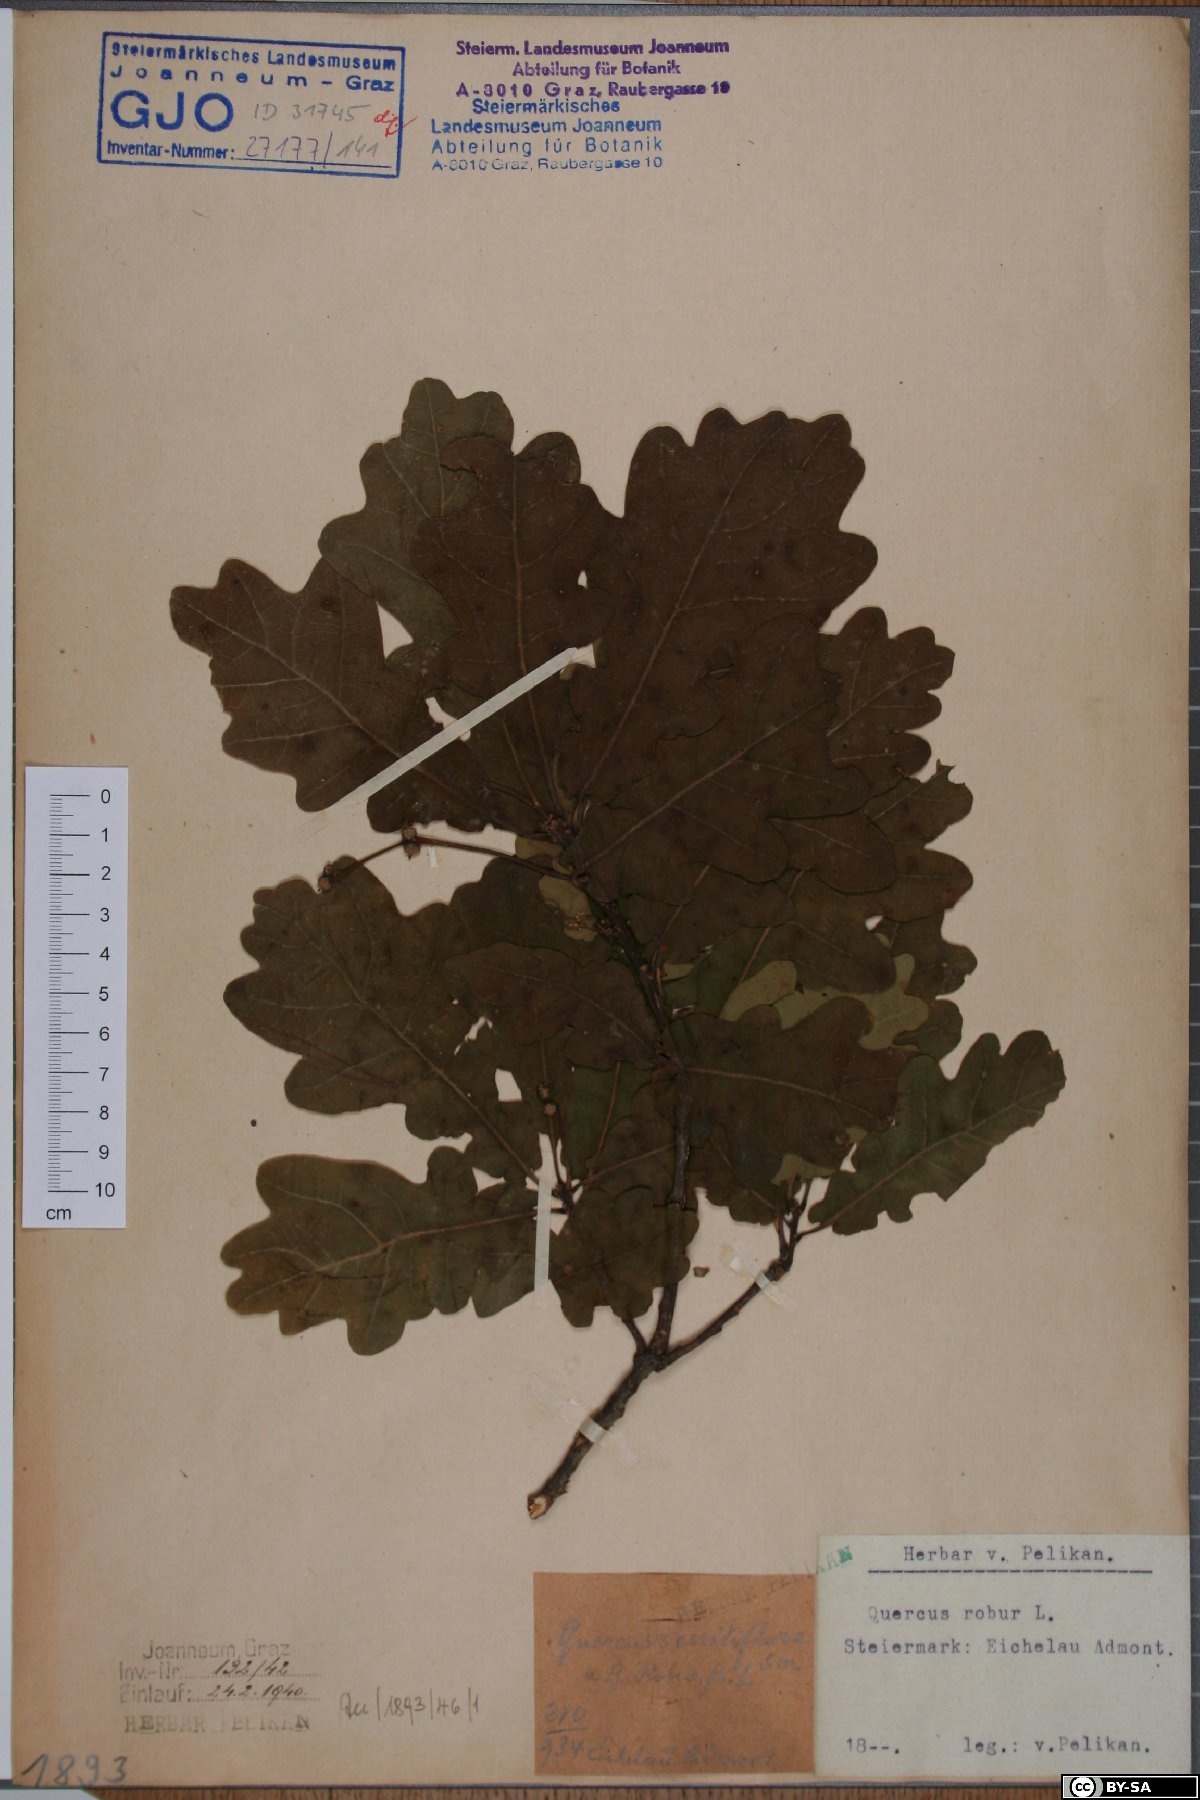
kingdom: Plantae
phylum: Tracheophyta
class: Magnoliopsida
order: Fagales
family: Fagaceae
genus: Quercus
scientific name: Quercus robur
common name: Pedunculate oak
